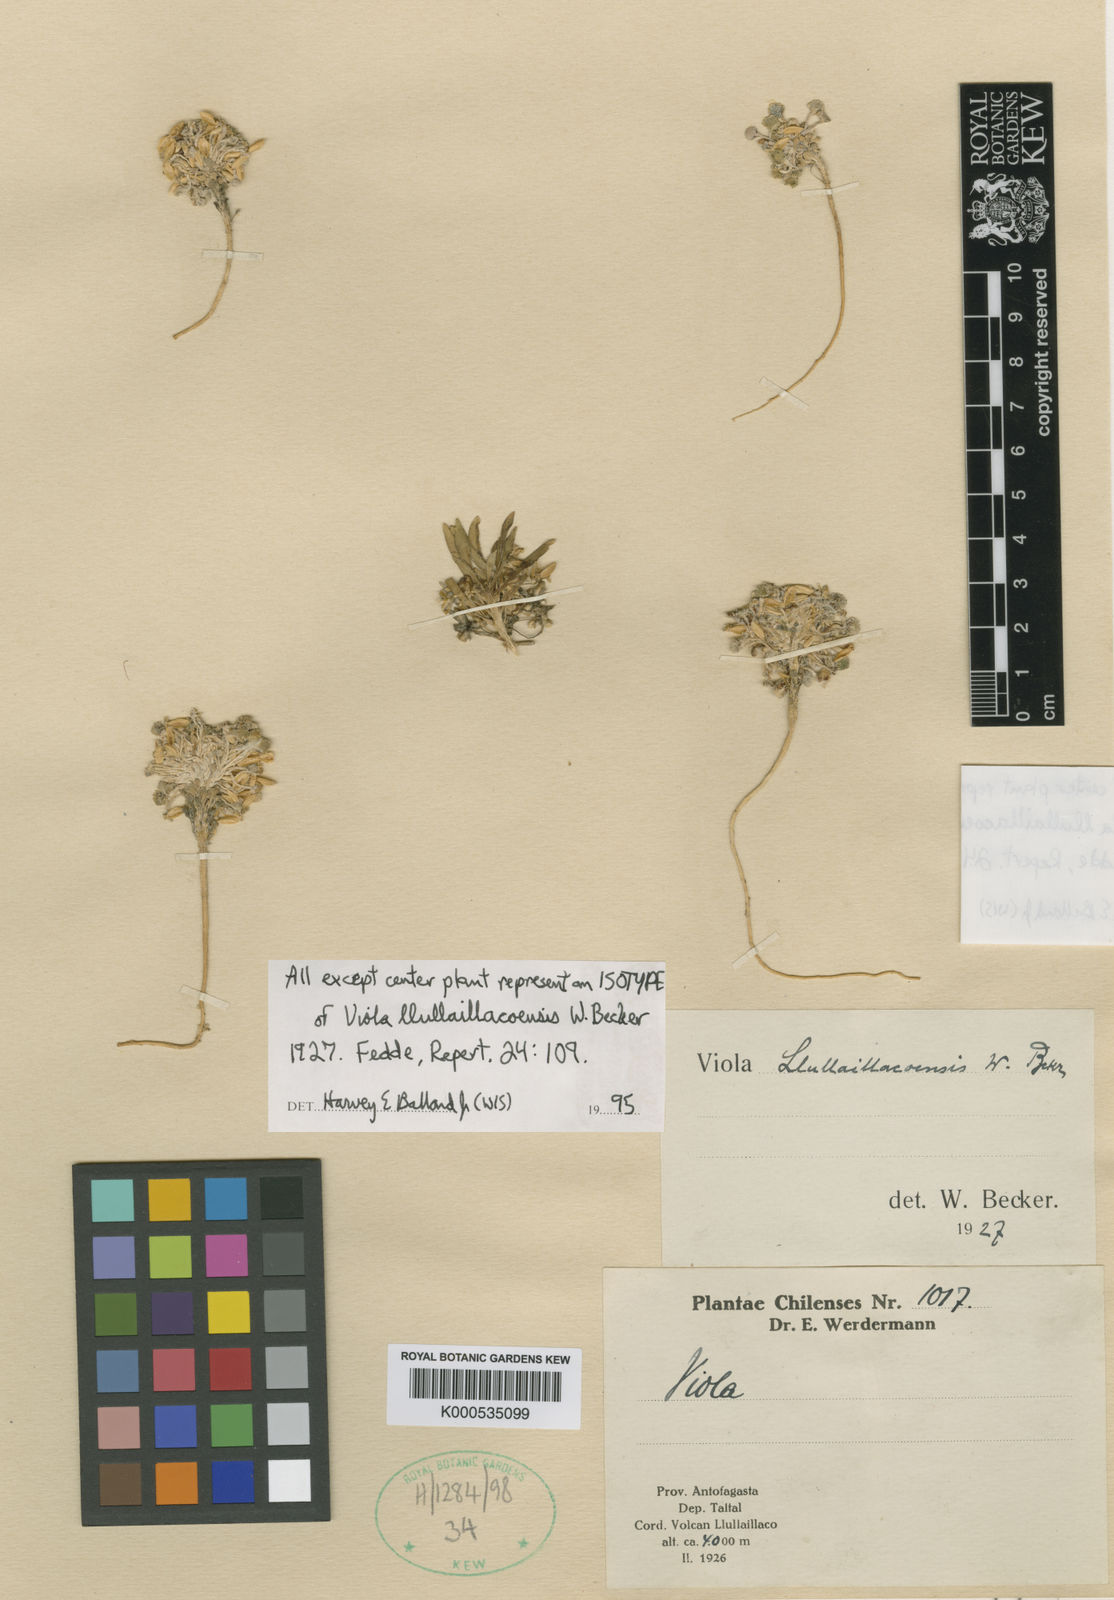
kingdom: Plantae
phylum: Tracheophyta
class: Magnoliopsida
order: Malpighiales
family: Violaceae
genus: Viola
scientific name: Viola llullaillacoensis
